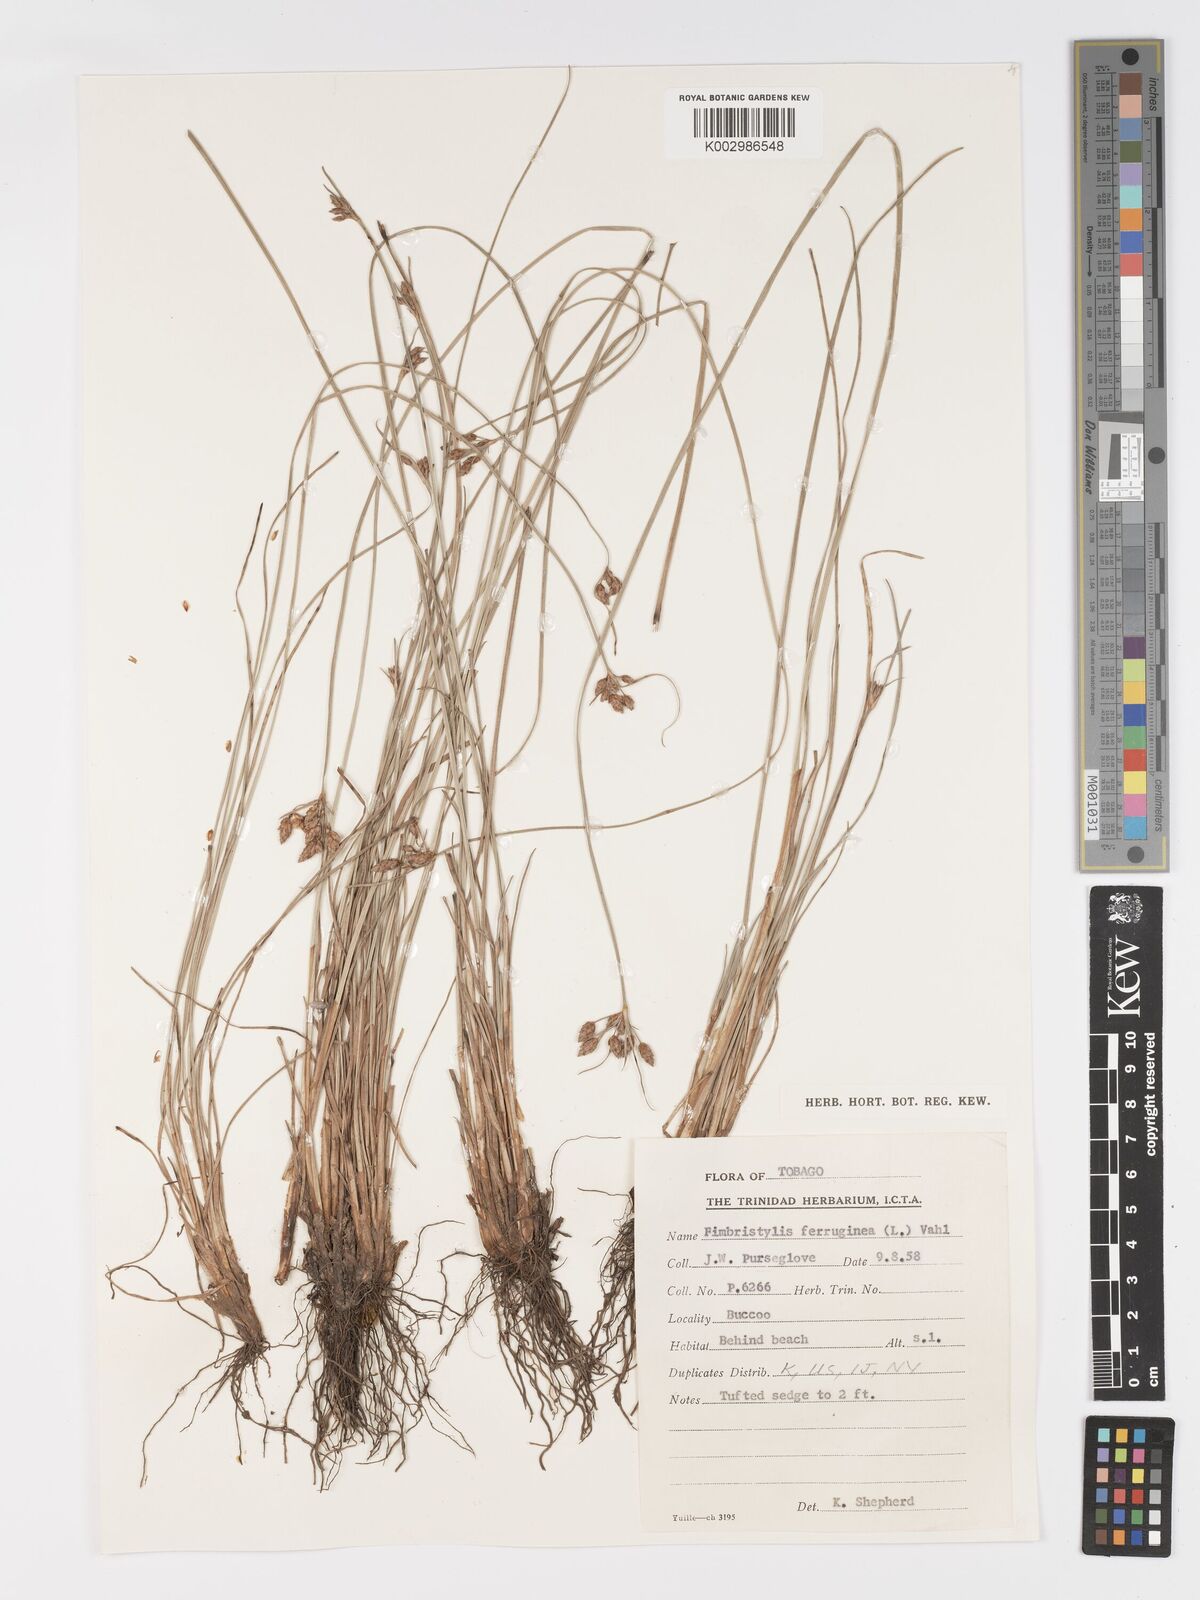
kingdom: Plantae
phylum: Tracheophyta
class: Liliopsida
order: Poales
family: Cyperaceae
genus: Fimbristylis
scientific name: Fimbristylis ferruginea
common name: West indian fimbry
